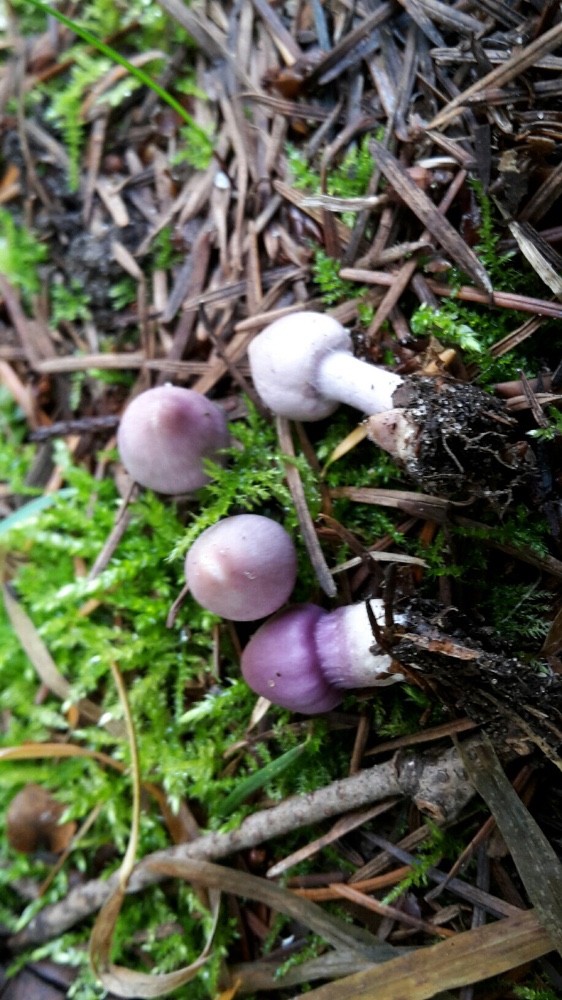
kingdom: Fungi
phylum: Basidiomycota
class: Agaricomycetes
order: Agaricales
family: Inocybaceae
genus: Inocybe
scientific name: Inocybe geophylla
